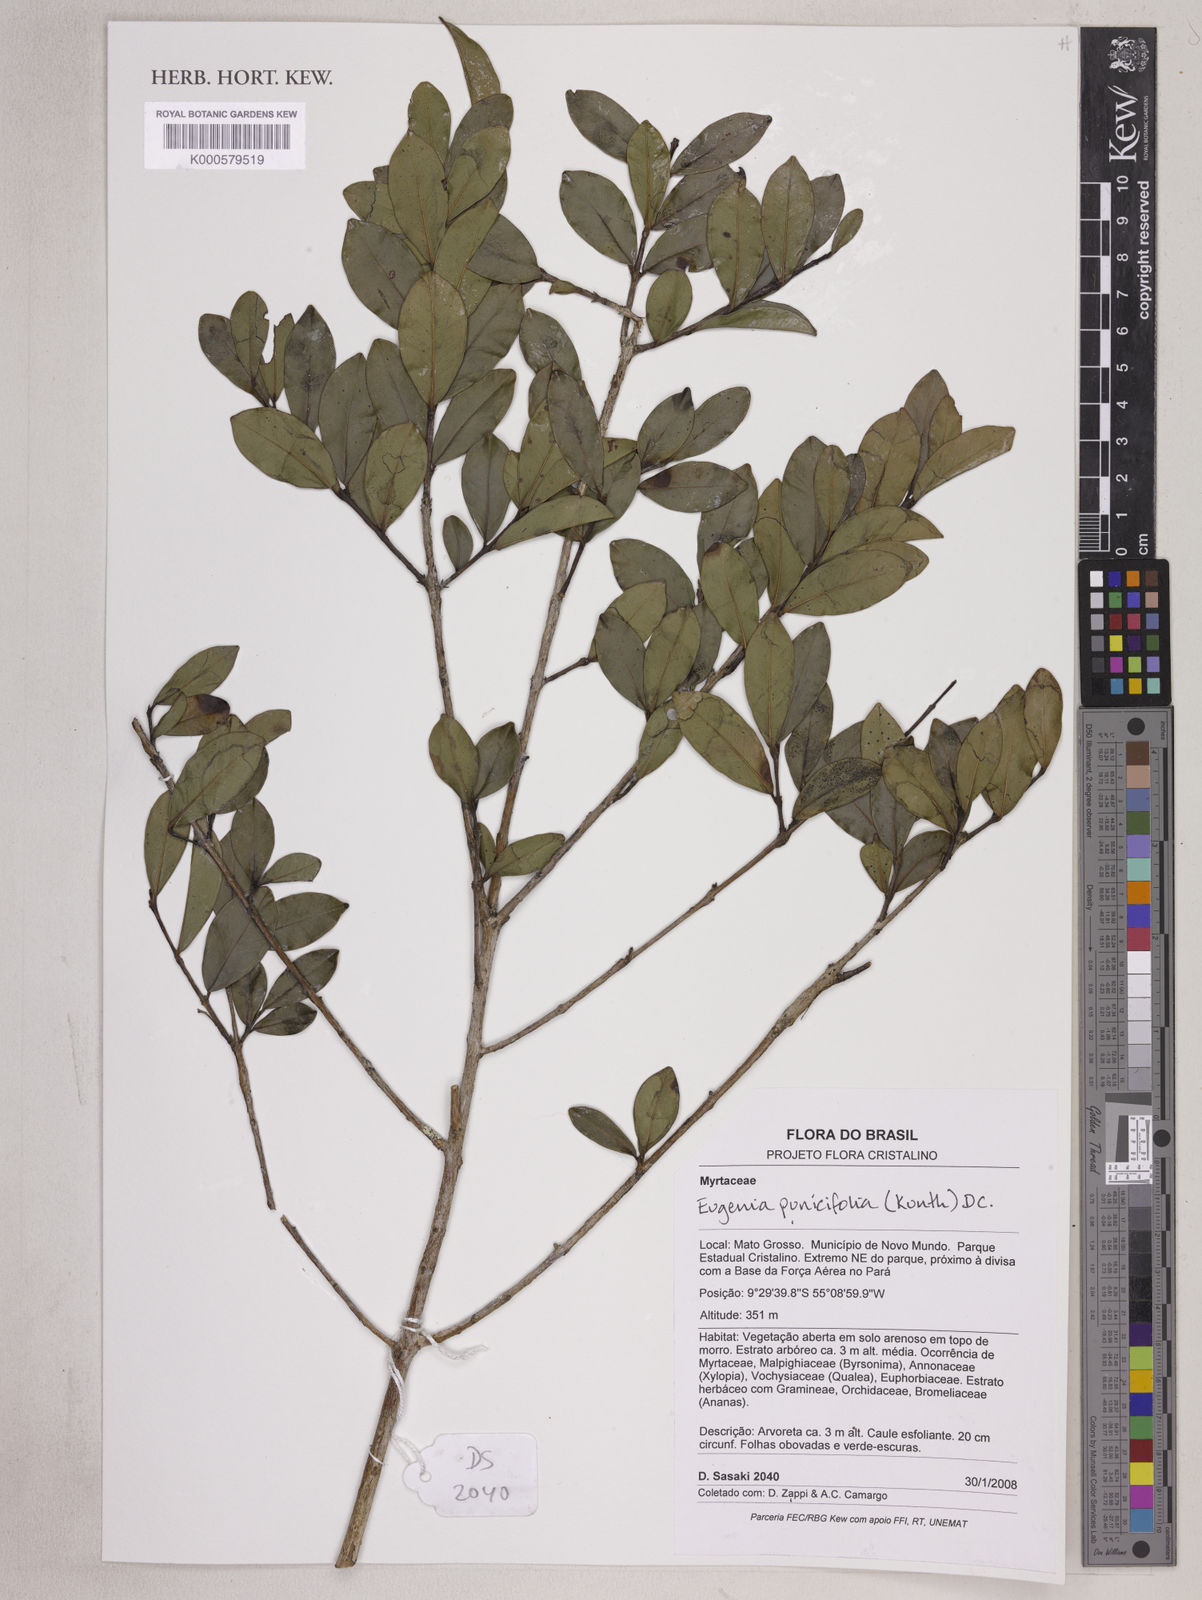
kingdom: Plantae
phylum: Tracheophyta
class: Magnoliopsida
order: Myrtales
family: Myrtaceae
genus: Eugenia
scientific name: Eugenia punicifolia
